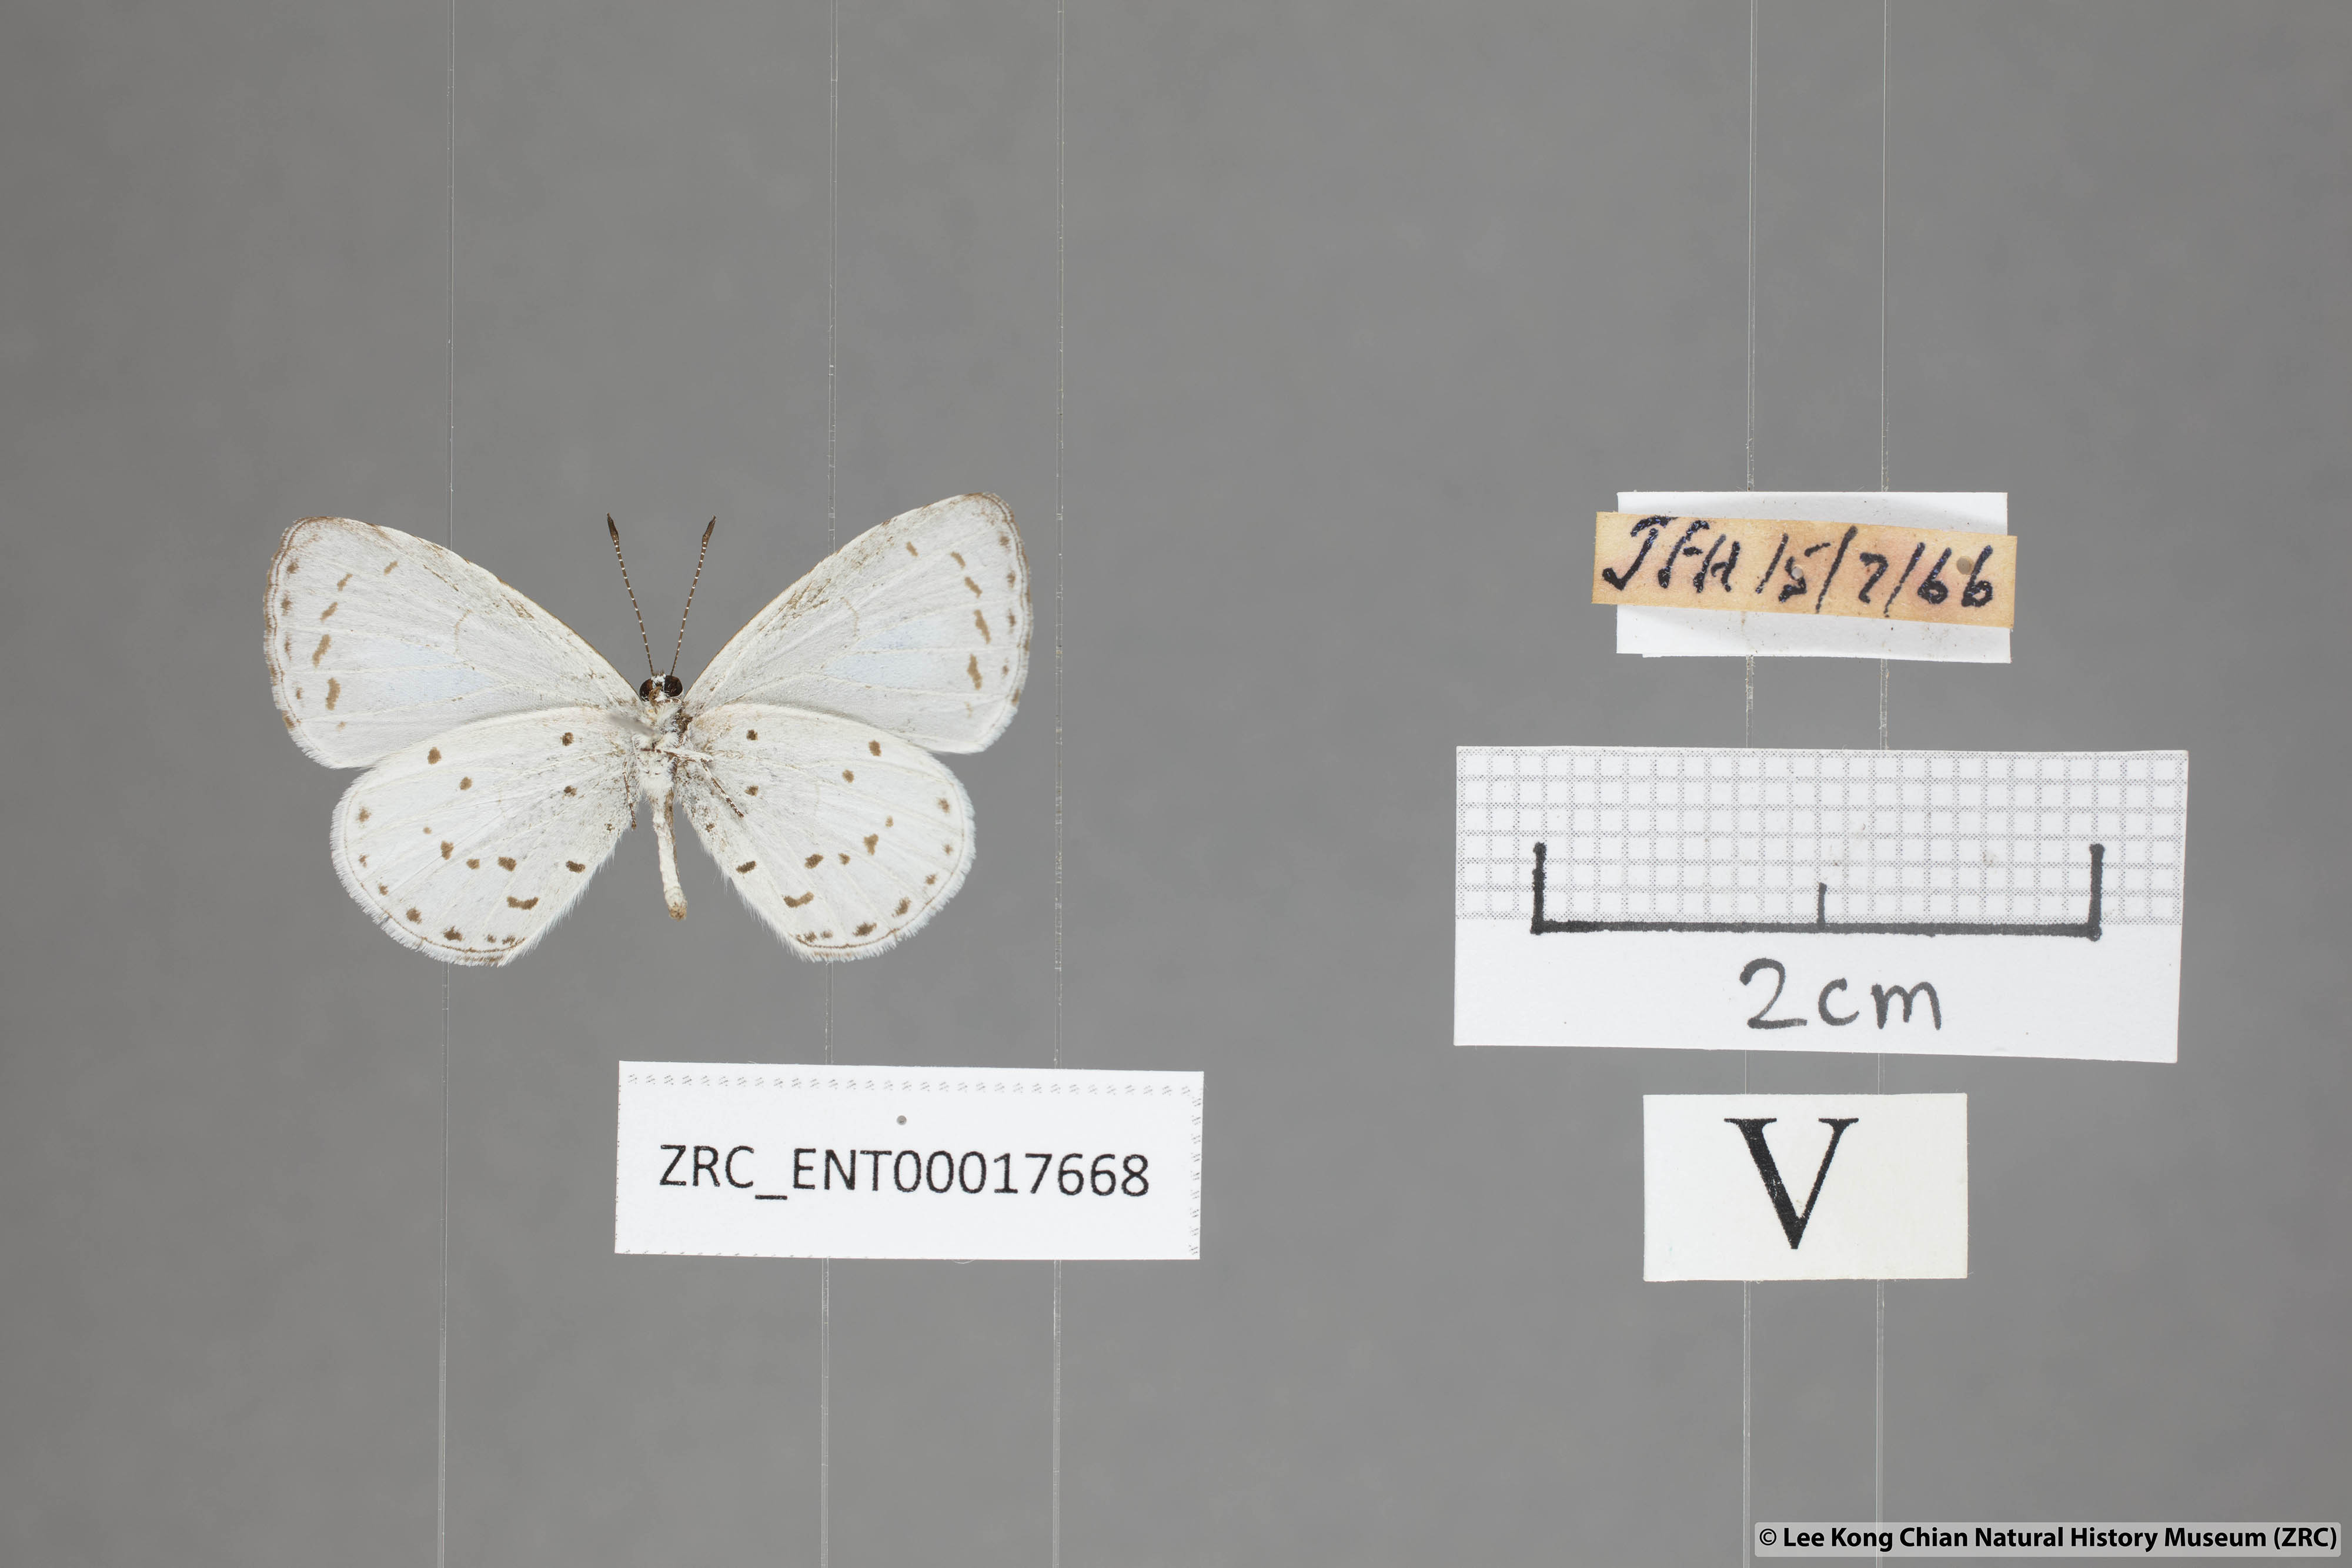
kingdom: Animalia
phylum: Arthropoda
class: Insecta
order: Lepidoptera
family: Lycaenidae
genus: Udara
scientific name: Udara albocaerulea
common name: Albocerulean
